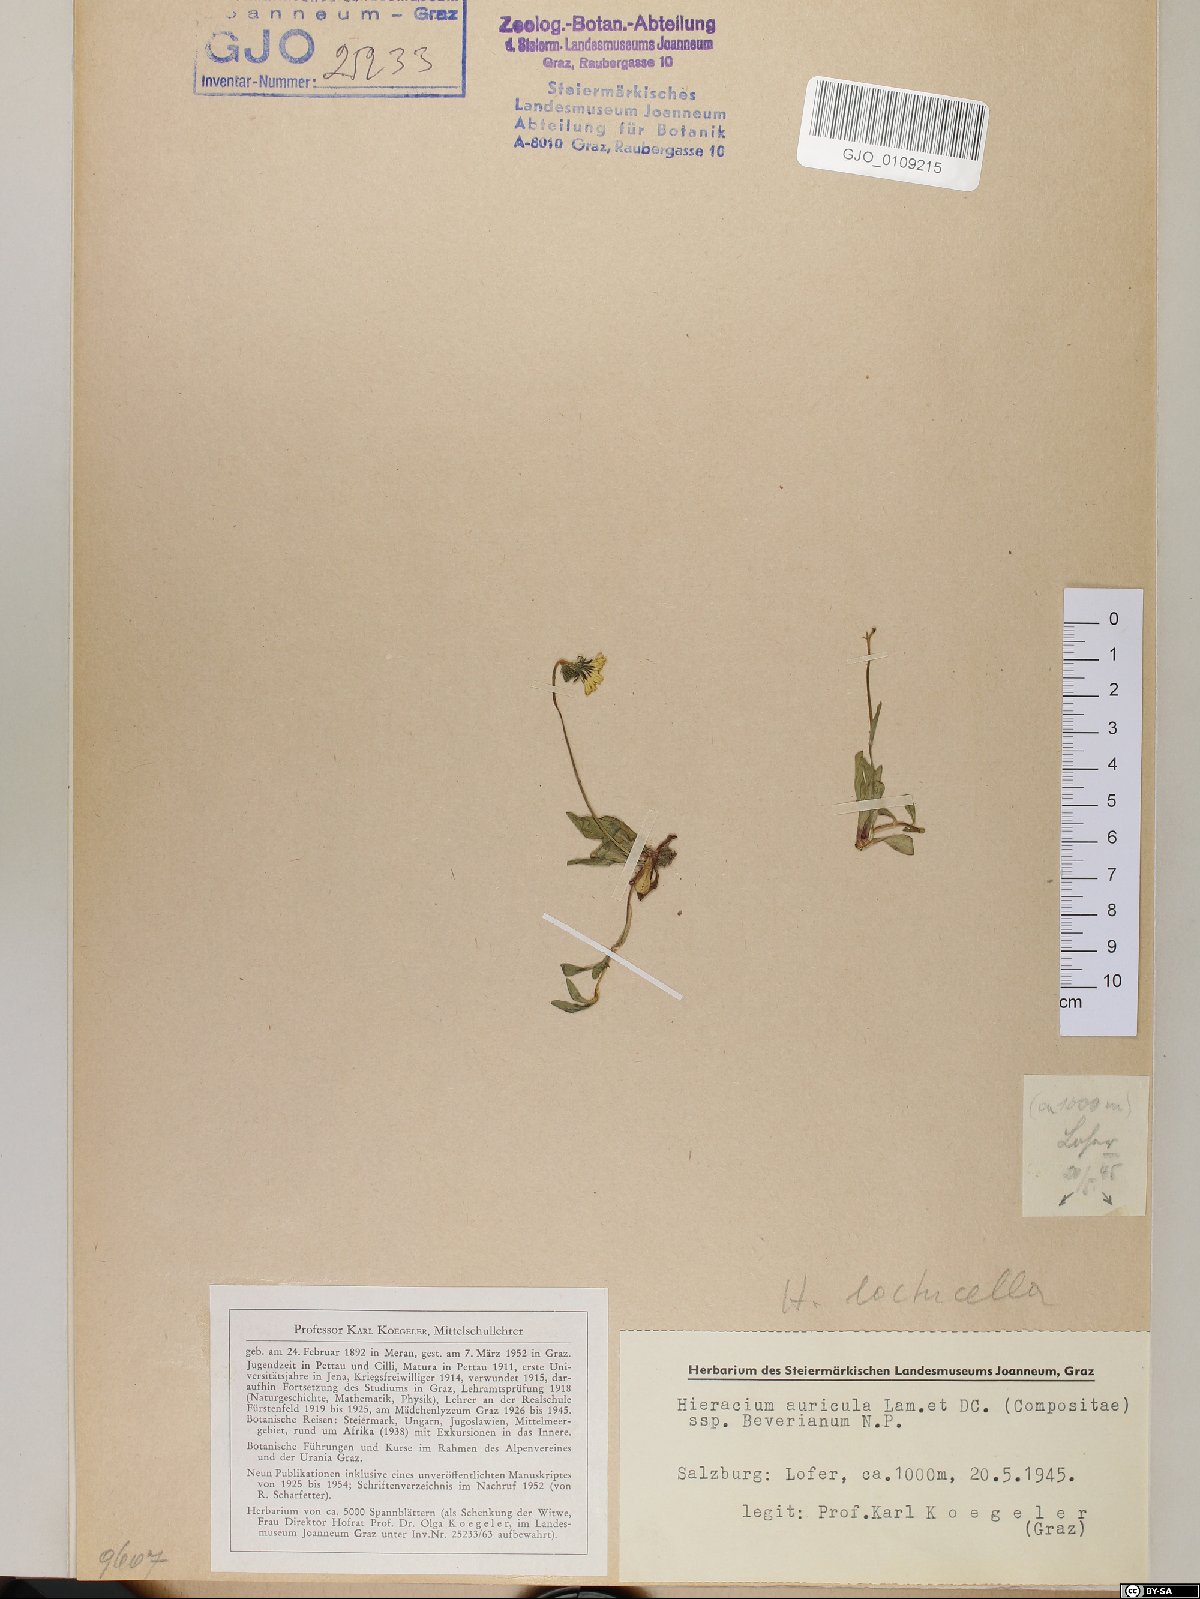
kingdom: Plantae
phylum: Tracheophyta
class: Magnoliopsida
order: Asterales
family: Asteraceae
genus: Hieracium
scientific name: Hieracium auricula
